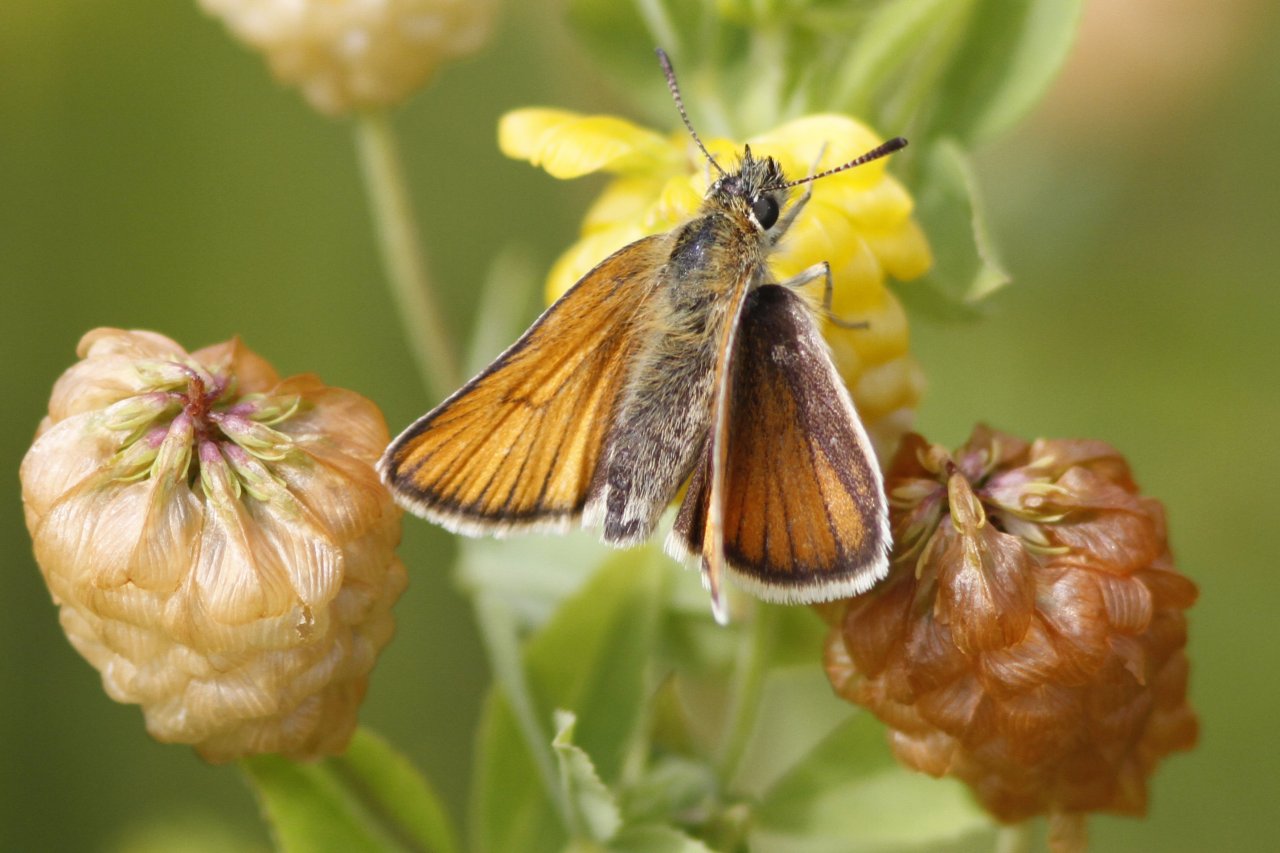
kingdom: Animalia
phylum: Arthropoda
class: Insecta
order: Lepidoptera
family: Hesperiidae
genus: Atrytone
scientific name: Atrytone delaware
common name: Delaware Skipper
